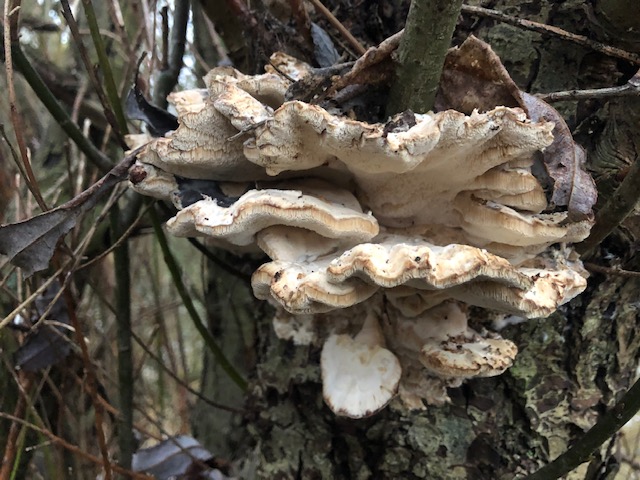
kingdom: Fungi
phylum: Basidiomycota
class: Agaricomycetes
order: Polyporales
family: Phanerochaetaceae
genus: Bjerkandera
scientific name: Bjerkandera fumosa
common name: grågul sodporesvamp
